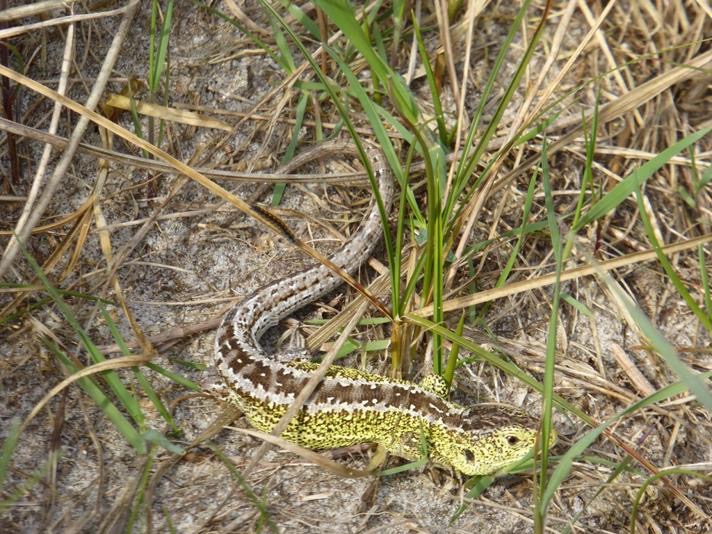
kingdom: Animalia
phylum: Chordata
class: Squamata
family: Lacertidae
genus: Lacerta
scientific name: Lacerta agilis
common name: Markfirben
